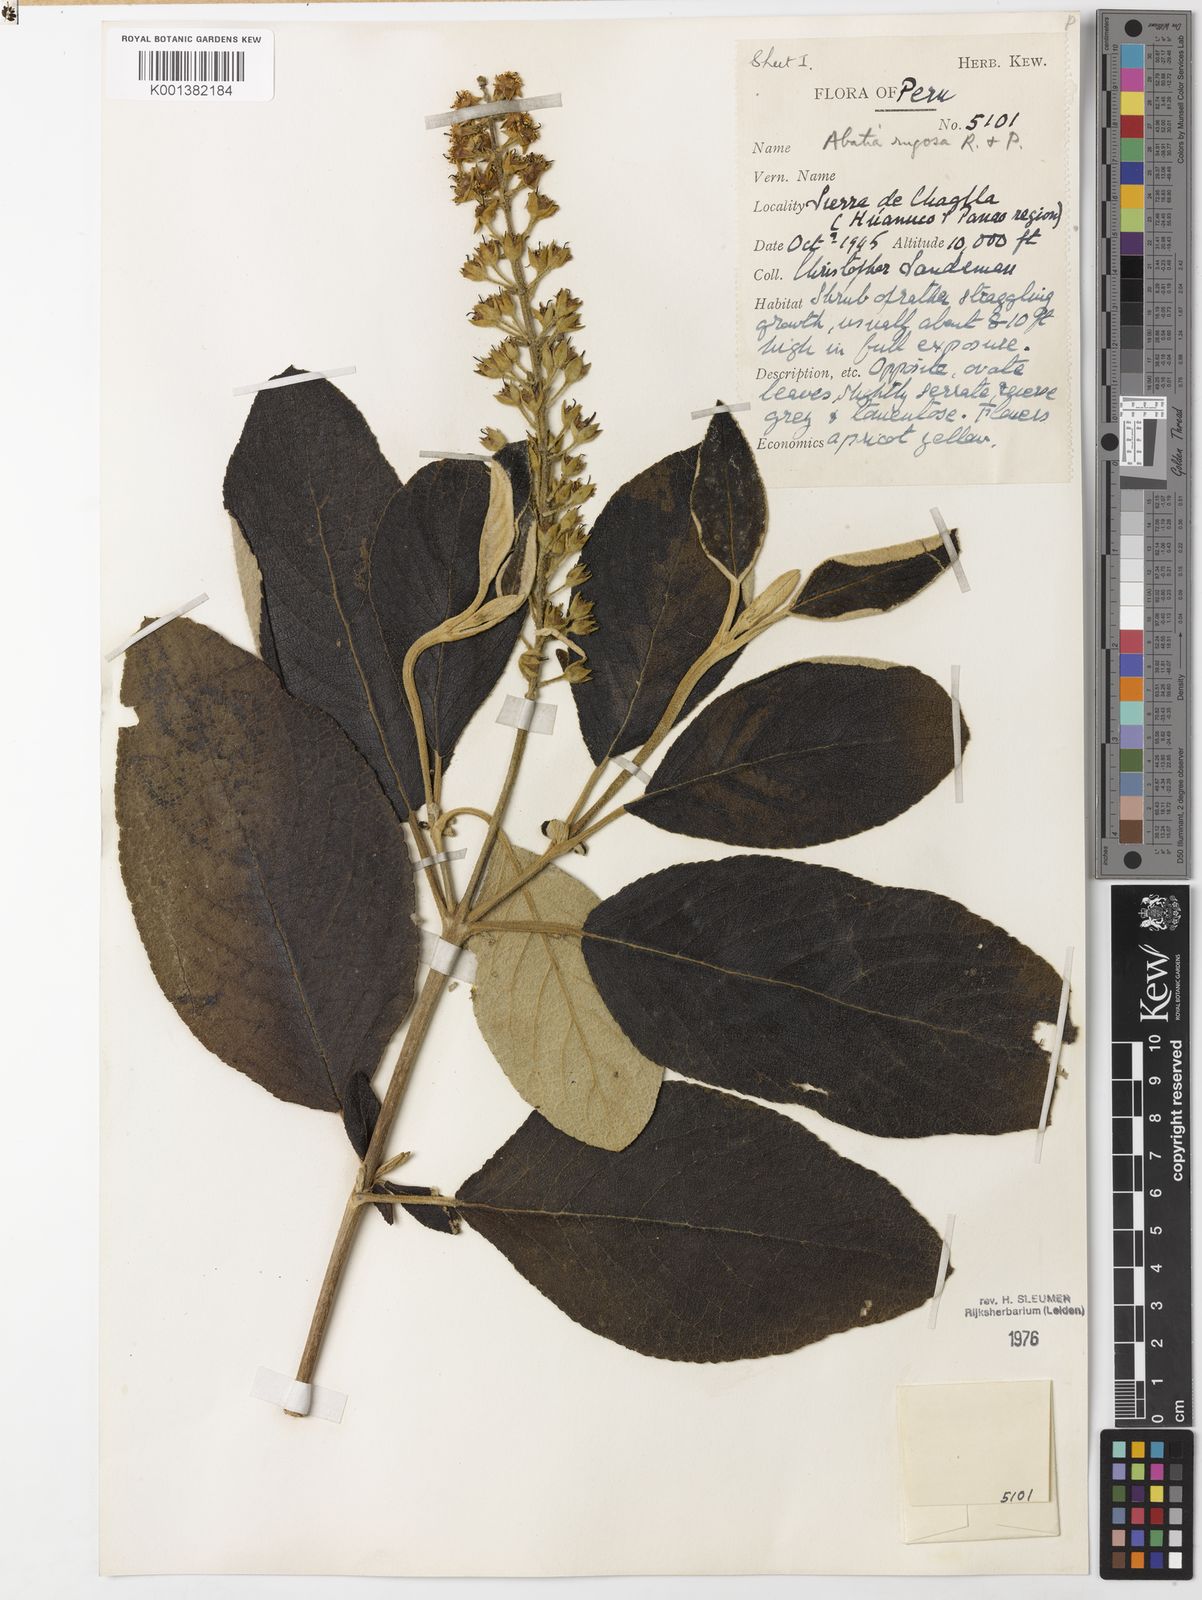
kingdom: Plantae
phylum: Tracheophyta
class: Magnoliopsida
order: Malpighiales
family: Salicaceae
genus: Abatia
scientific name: Abatia rugosa
